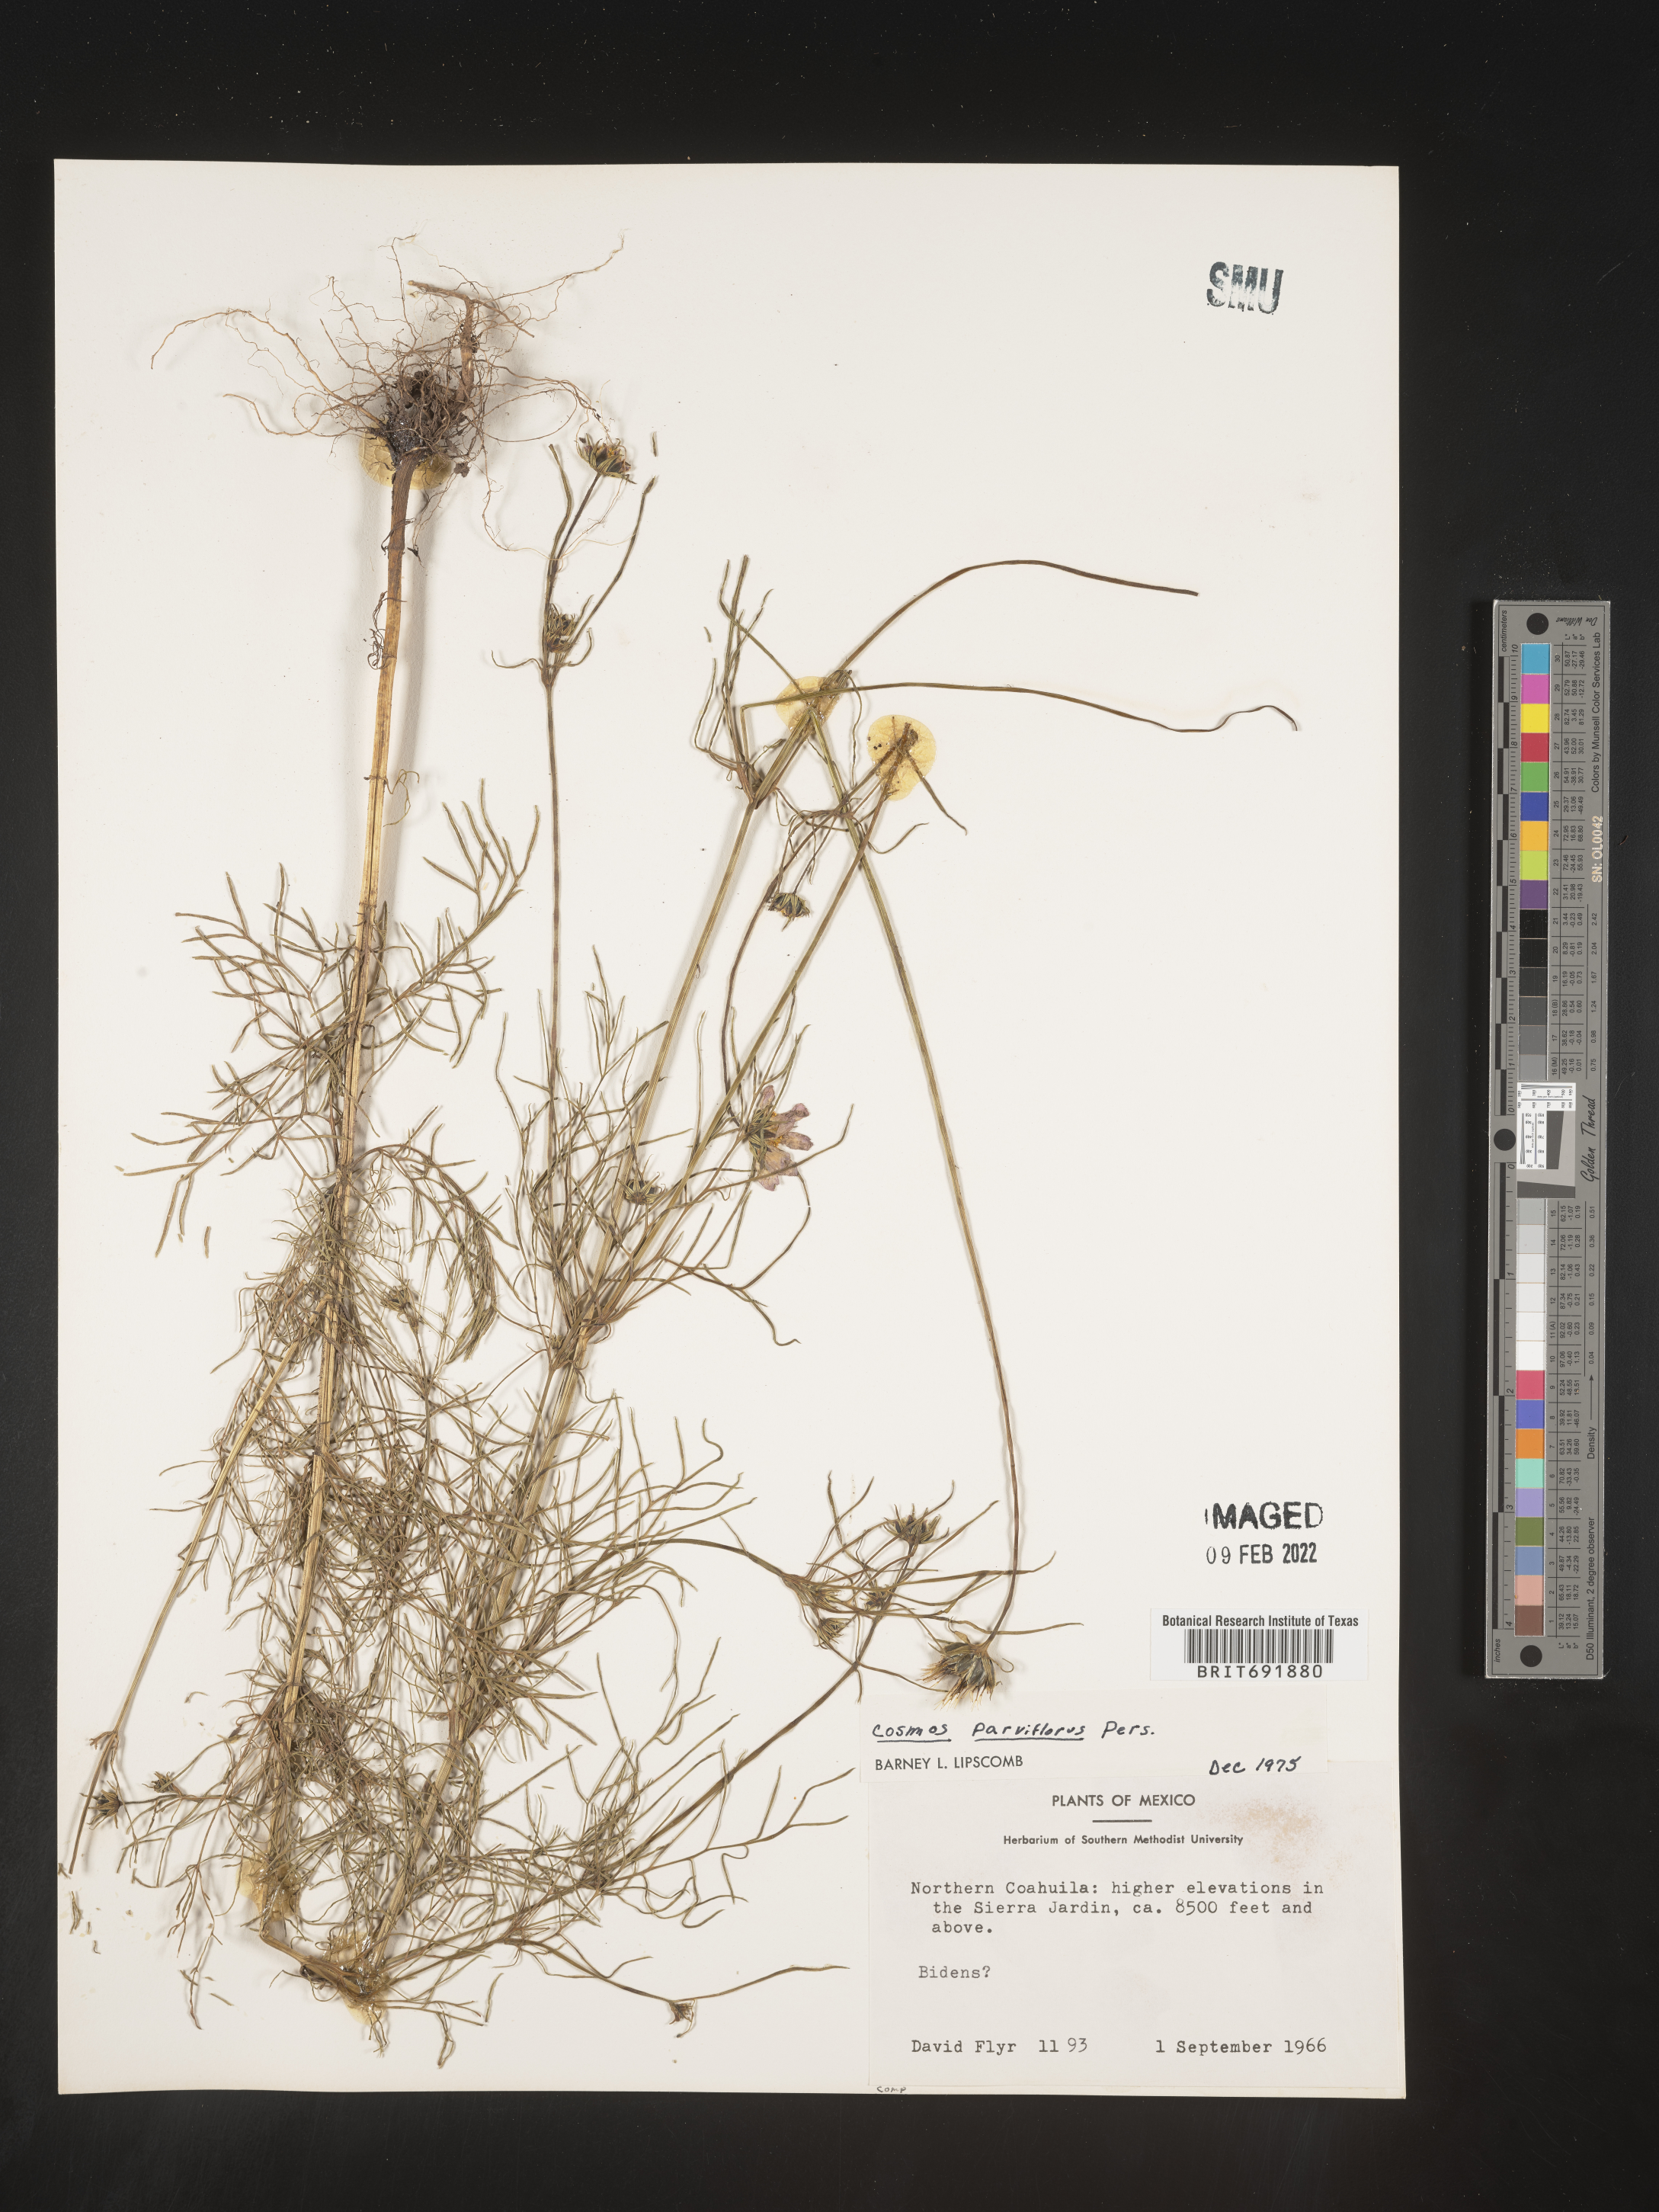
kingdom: Plantae
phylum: Tracheophyta
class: Magnoliopsida
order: Asterales
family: Asteraceae
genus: Cosmos
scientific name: Cosmos
